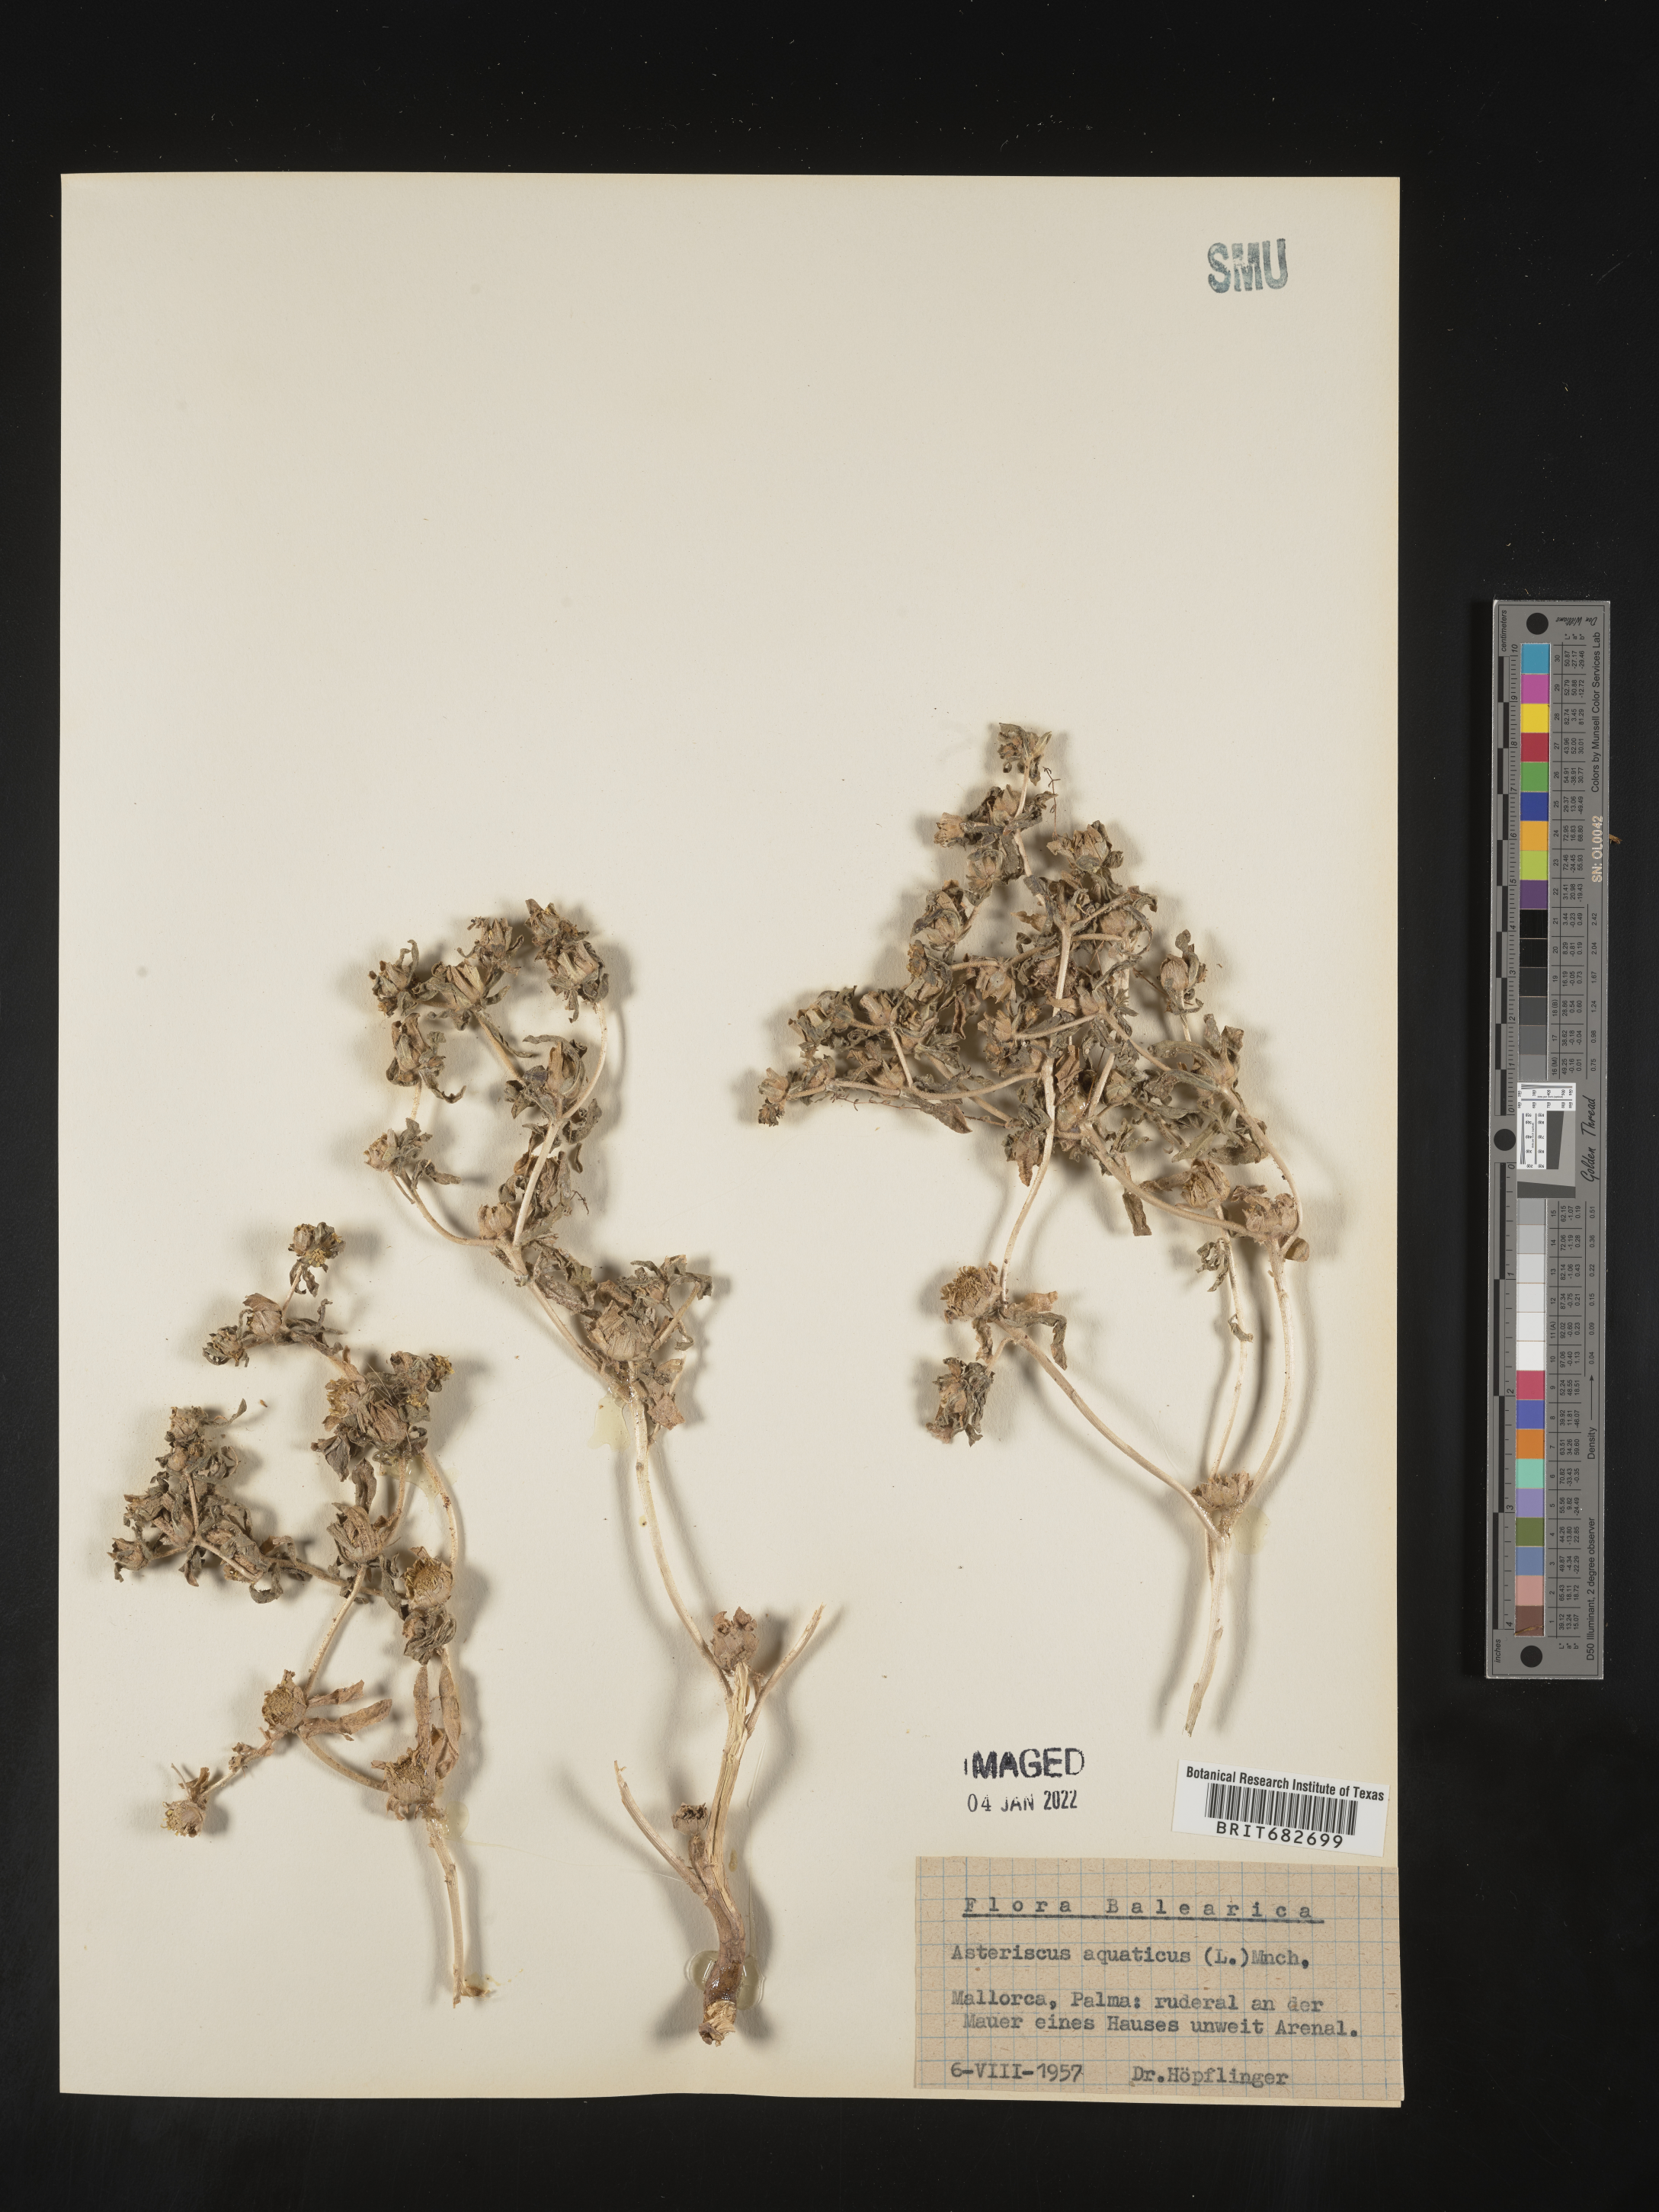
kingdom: Plantae
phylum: Tracheophyta
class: Magnoliopsida
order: Asterales
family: Asteraceae
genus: Asteriscus
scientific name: Asteriscus
